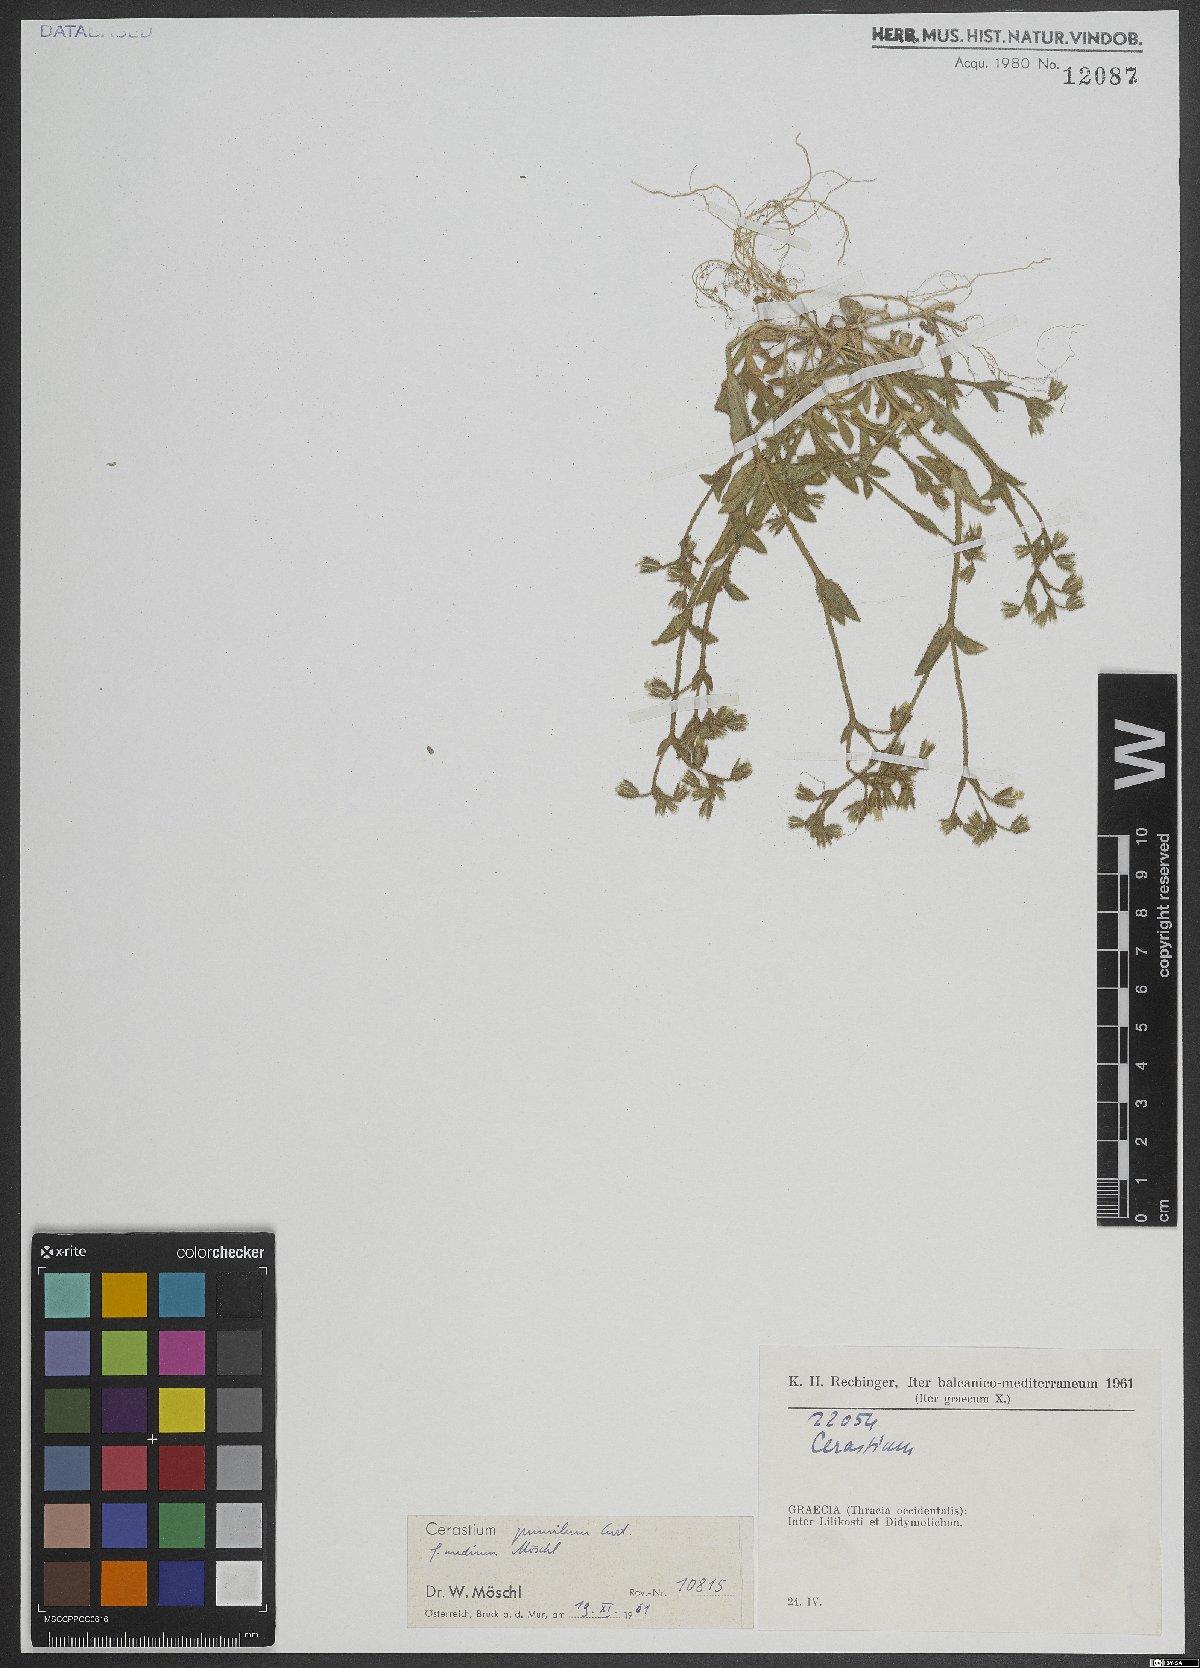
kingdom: Plantae
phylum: Tracheophyta
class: Magnoliopsida
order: Caryophyllales
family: Caryophyllaceae
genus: Cerastium
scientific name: Cerastium pumilum
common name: Dwarf mouse-ear
